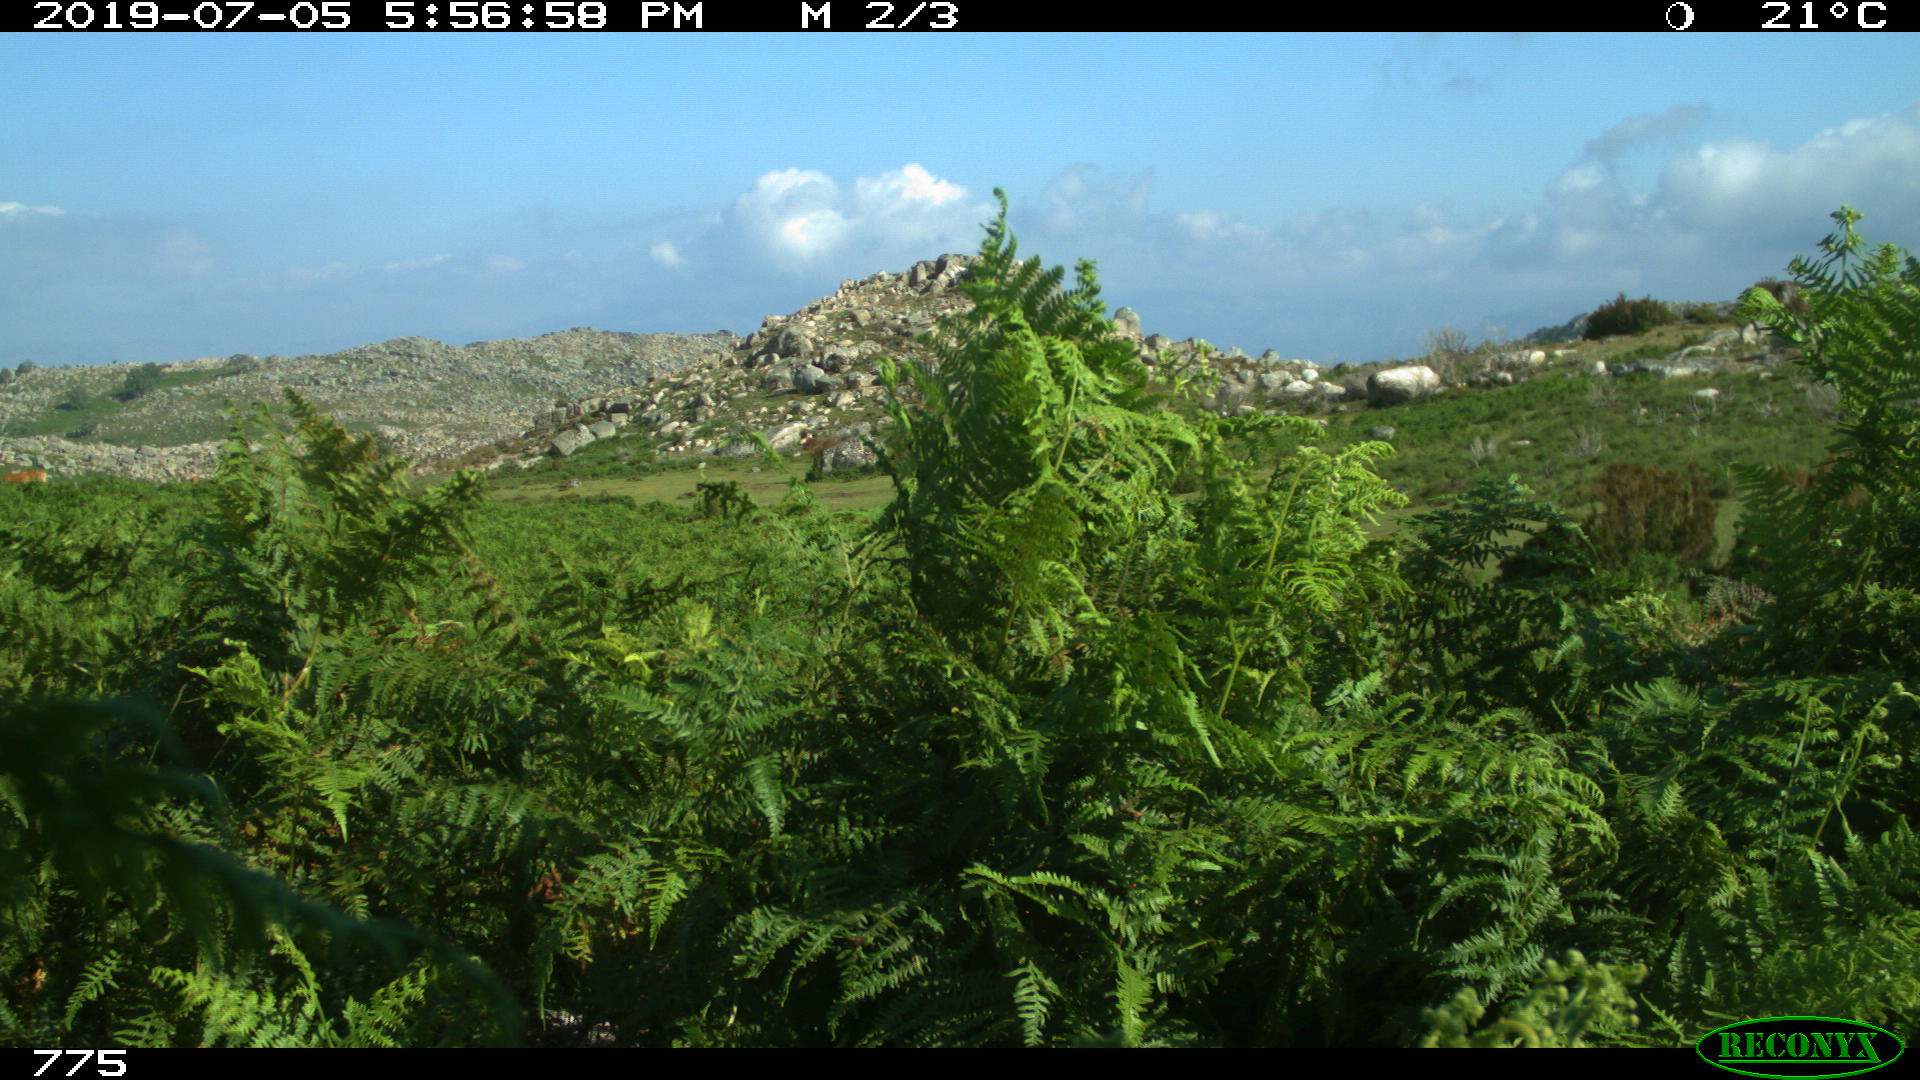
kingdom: Animalia
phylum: Chordata
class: Mammalia
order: Artiodactyla
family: Bovidae
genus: Bos
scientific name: Bos taurus
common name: Domesticated cattle
